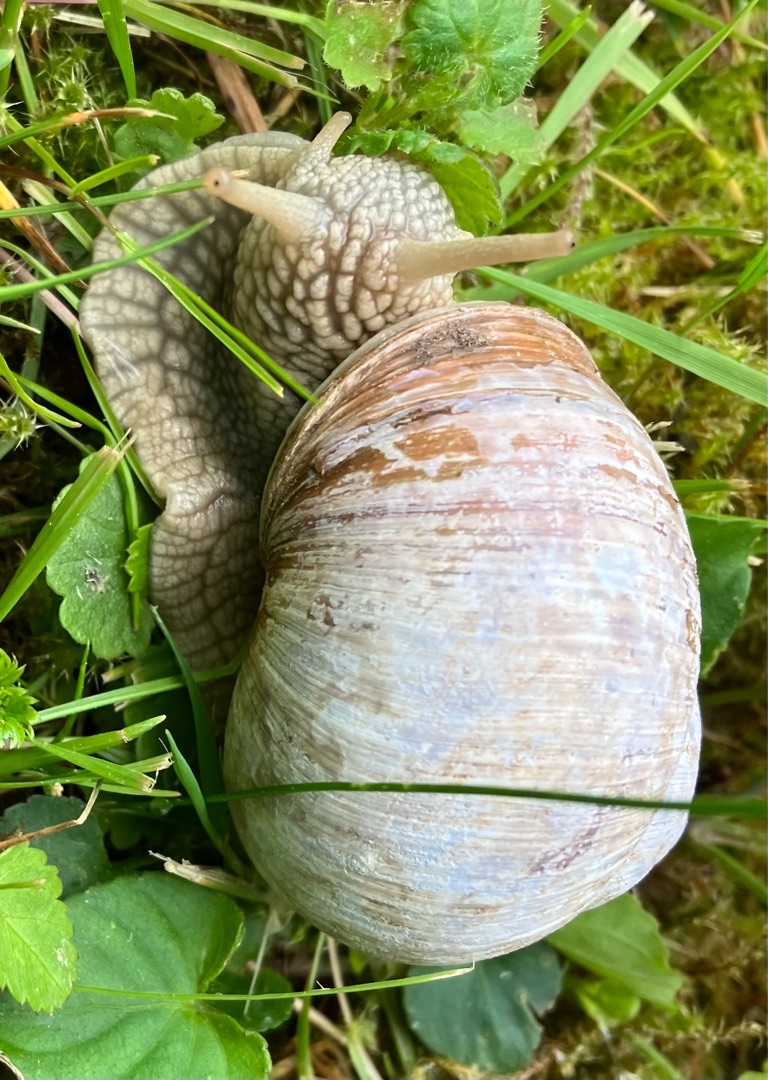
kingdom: Animalia
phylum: Mollusca
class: Gastropoda
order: Stylommatophora
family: Helicidae
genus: Helix
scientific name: Helix pomatia
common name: Vinbjergsnegl
